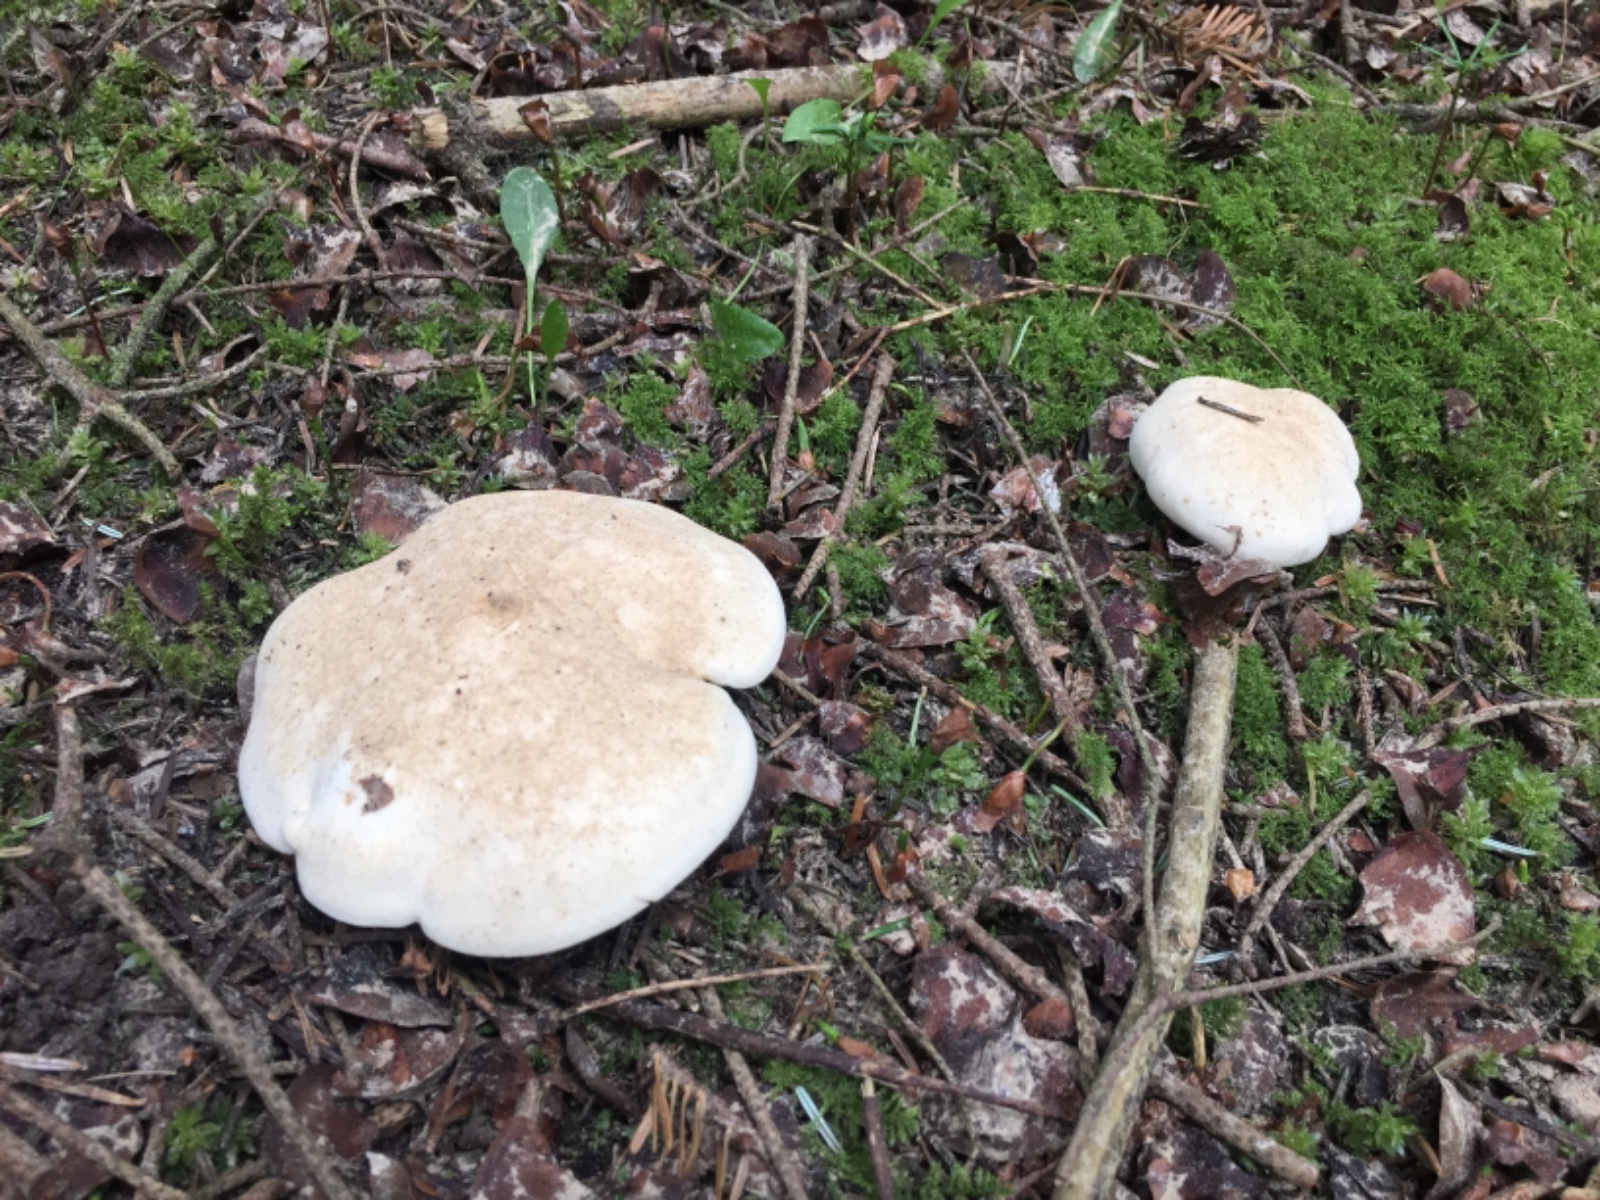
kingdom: Fungi
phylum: Basidiomycota
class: Agaricomycetes
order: Agaricales
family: Lyophyllaceae
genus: Calocybe
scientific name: Calocybe gambosa
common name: vårmusseron
